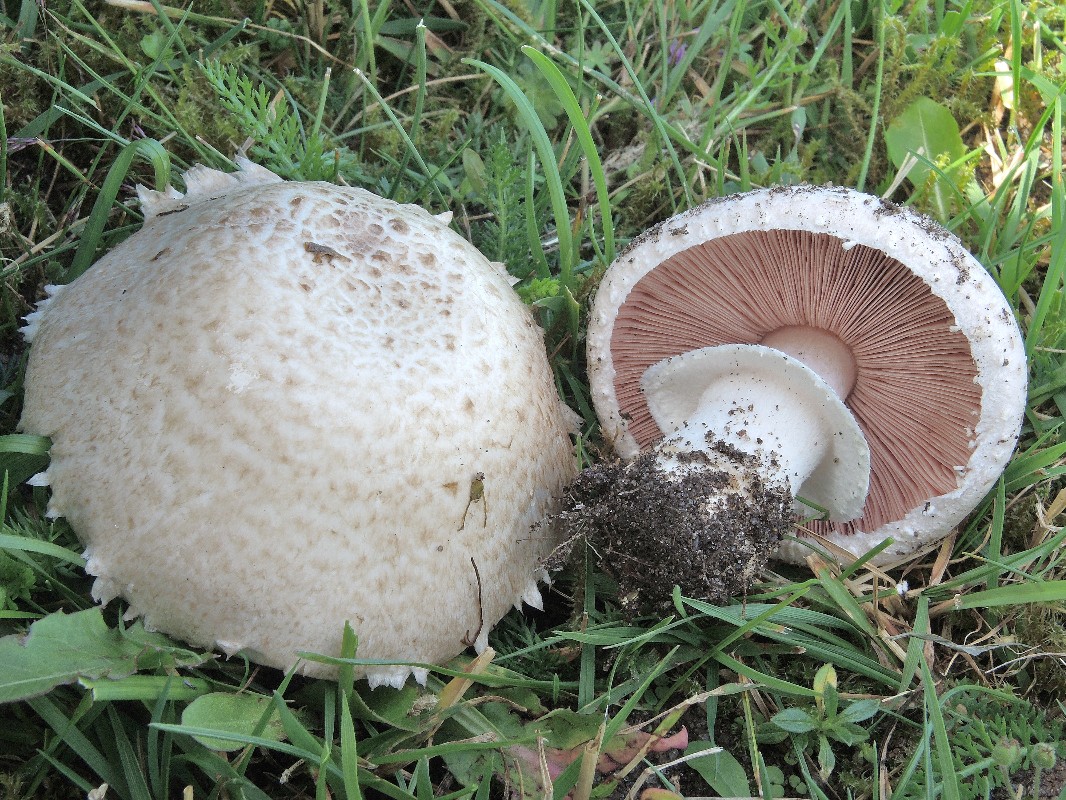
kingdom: Fungi
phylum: Basidiomycota
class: Agaricomycetes
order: Agaricales
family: Agaricaceae
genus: Agaricus
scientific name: Agaricus campestris
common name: mark-champignon
